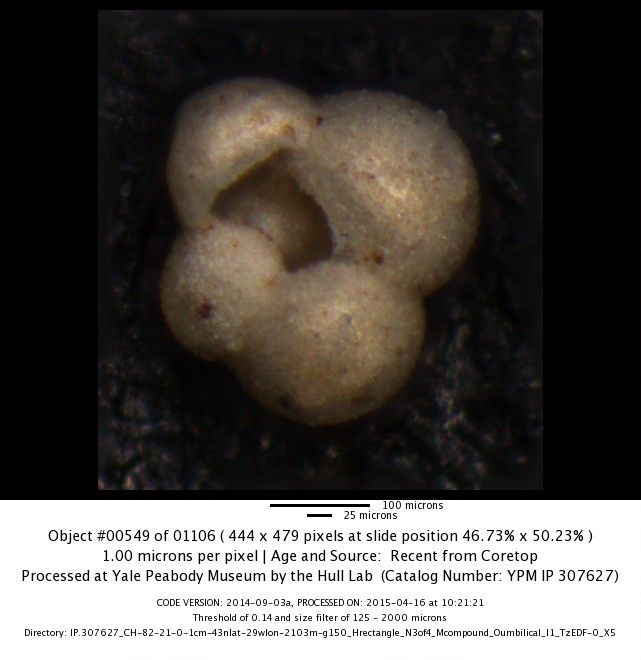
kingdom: Chromista
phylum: Foraminifera
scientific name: Foraminifera
